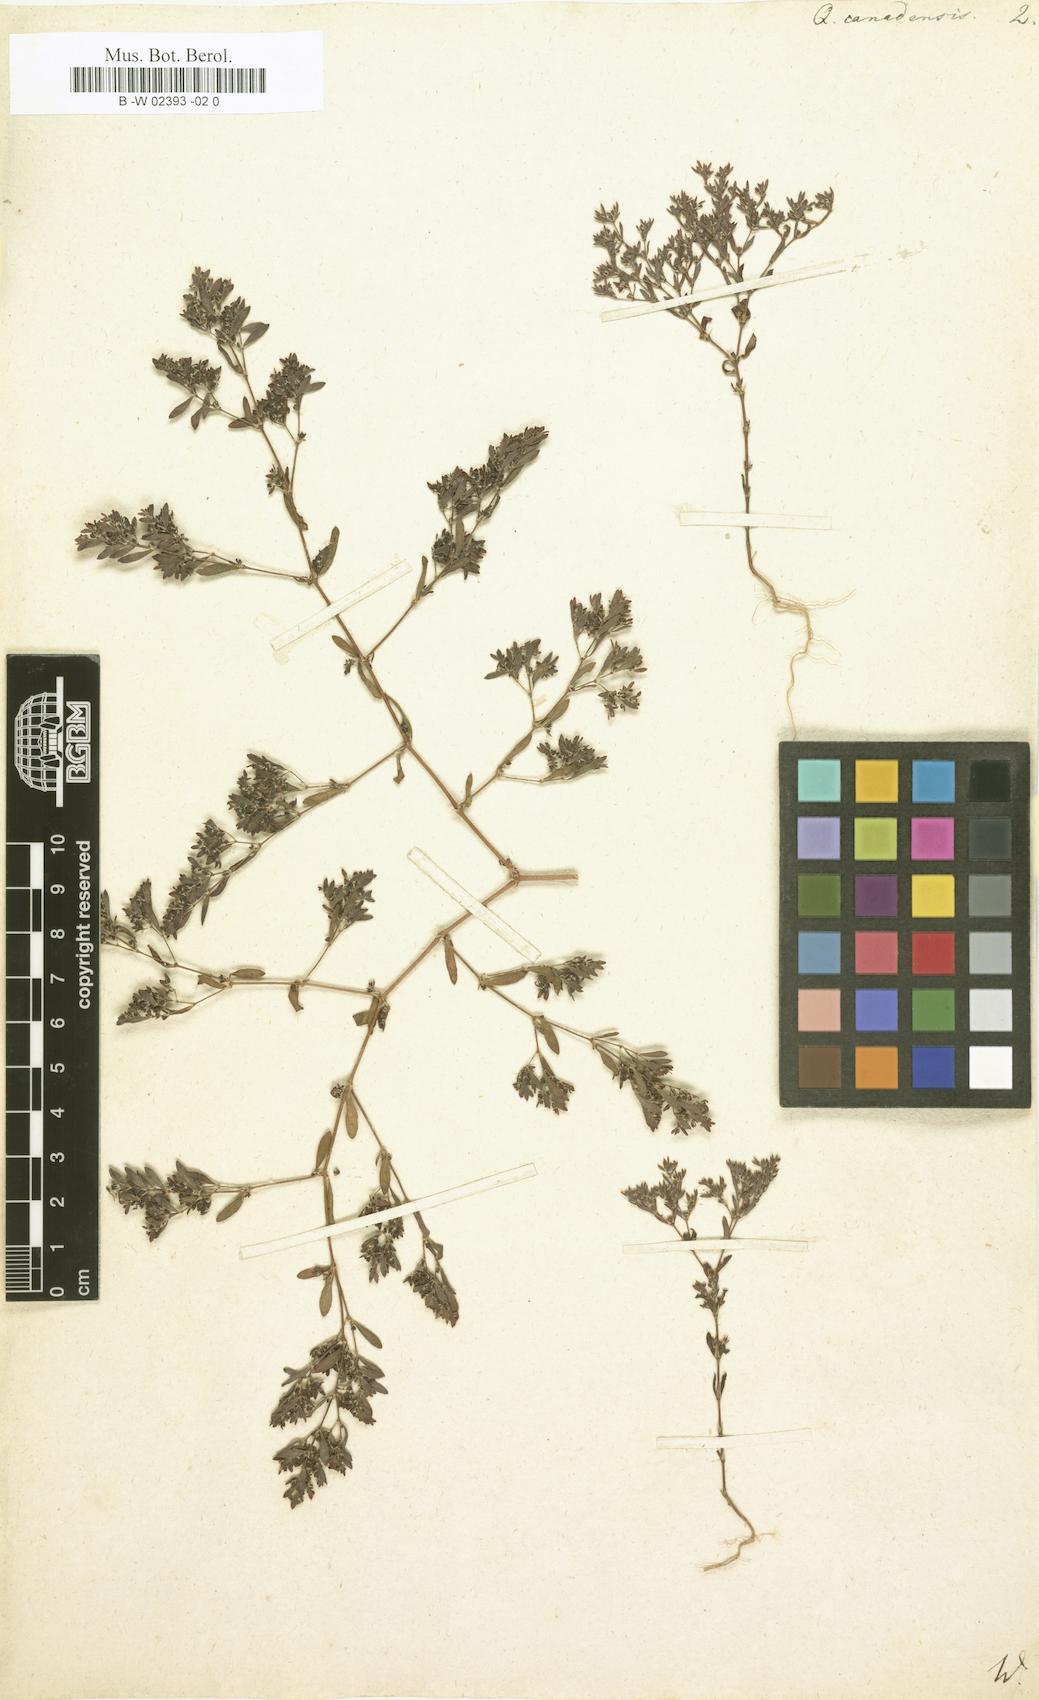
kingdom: Plantae
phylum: Tracheophyta
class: Magnoliopsida
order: Caryophyllales
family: Caryophyllaceae
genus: Paronychia
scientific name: Paronychia canadensis
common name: Canada forked nailwort
